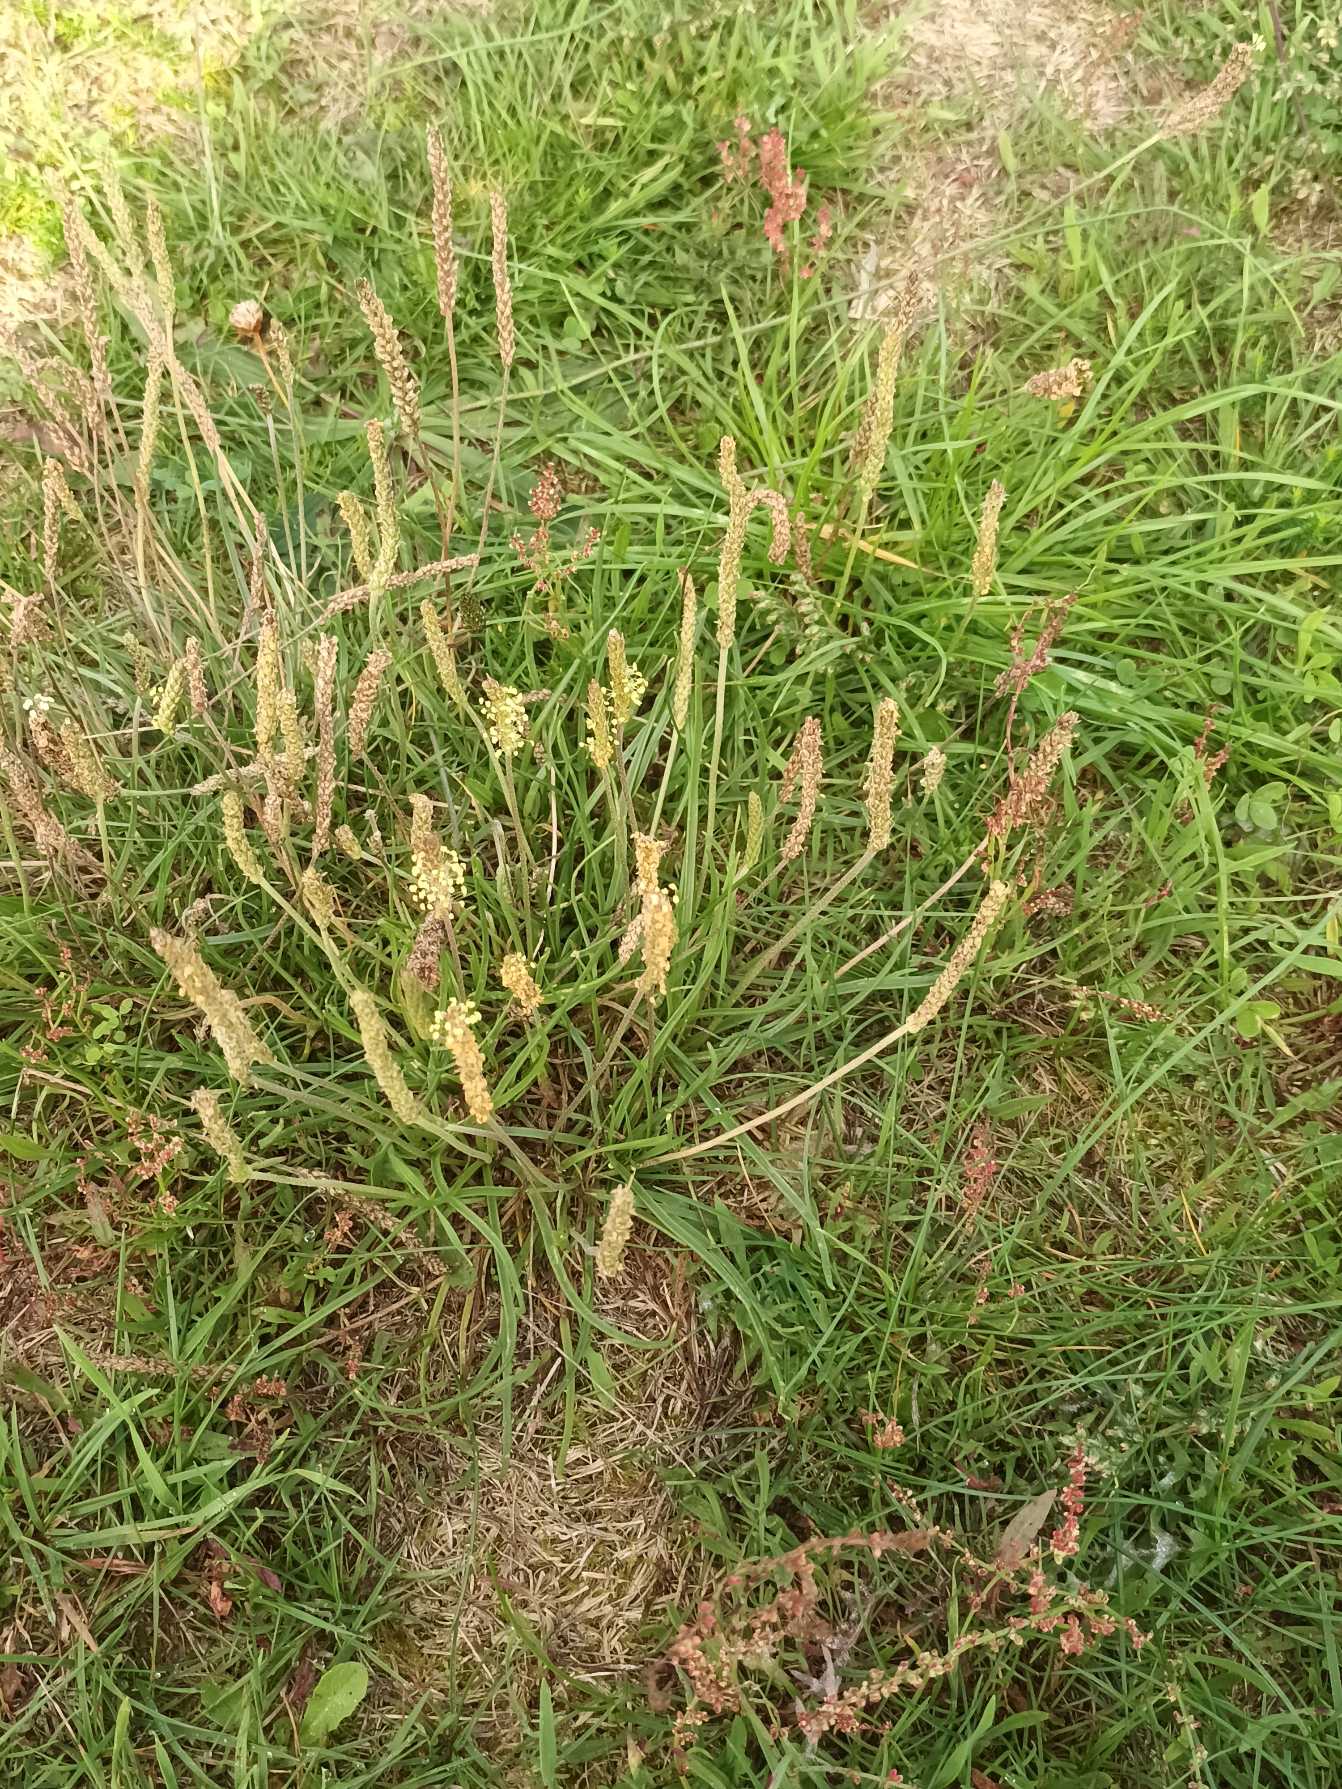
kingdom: Plantae
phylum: Tracheophyta
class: Magnoliopsida
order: Lamiales
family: Plantaginaceae
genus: Plantago
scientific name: Plantago maritima
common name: Strand-vejbred
